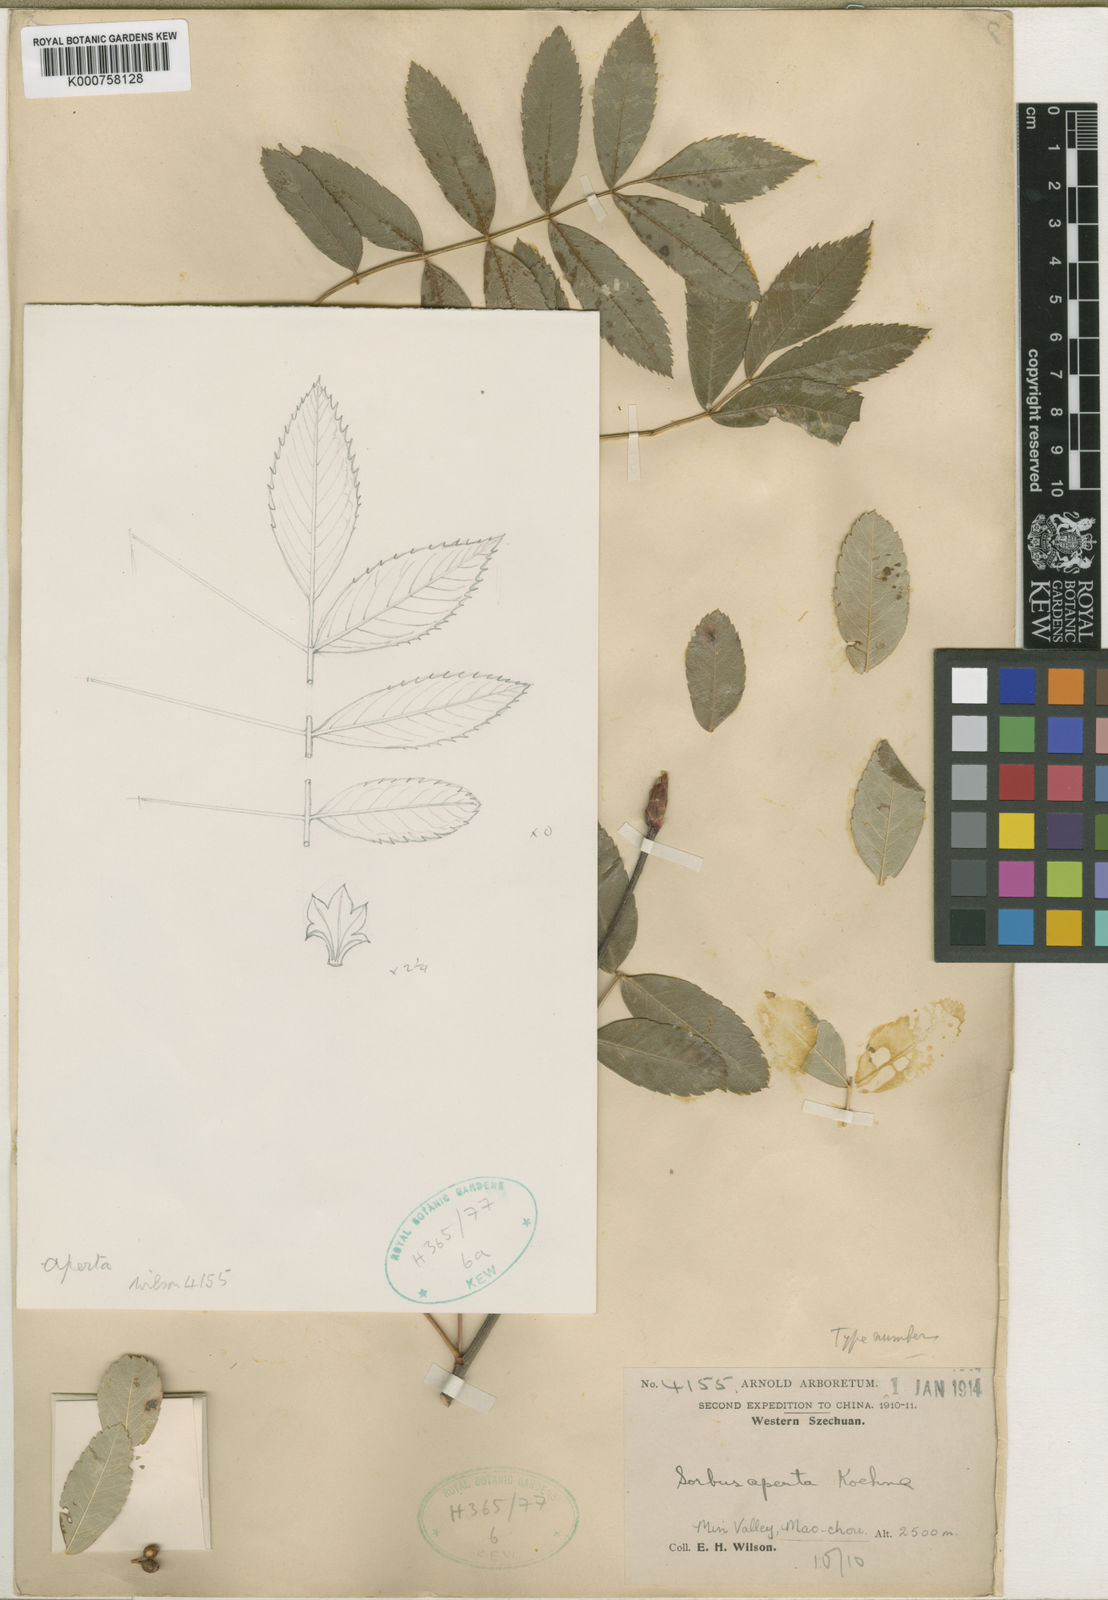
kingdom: Plantae
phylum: Tracheophyta
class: Magnoliopsida
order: Rosales
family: Rosaceae
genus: Sorbus
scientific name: Sorbus hupehensis
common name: Hupeh rowan
